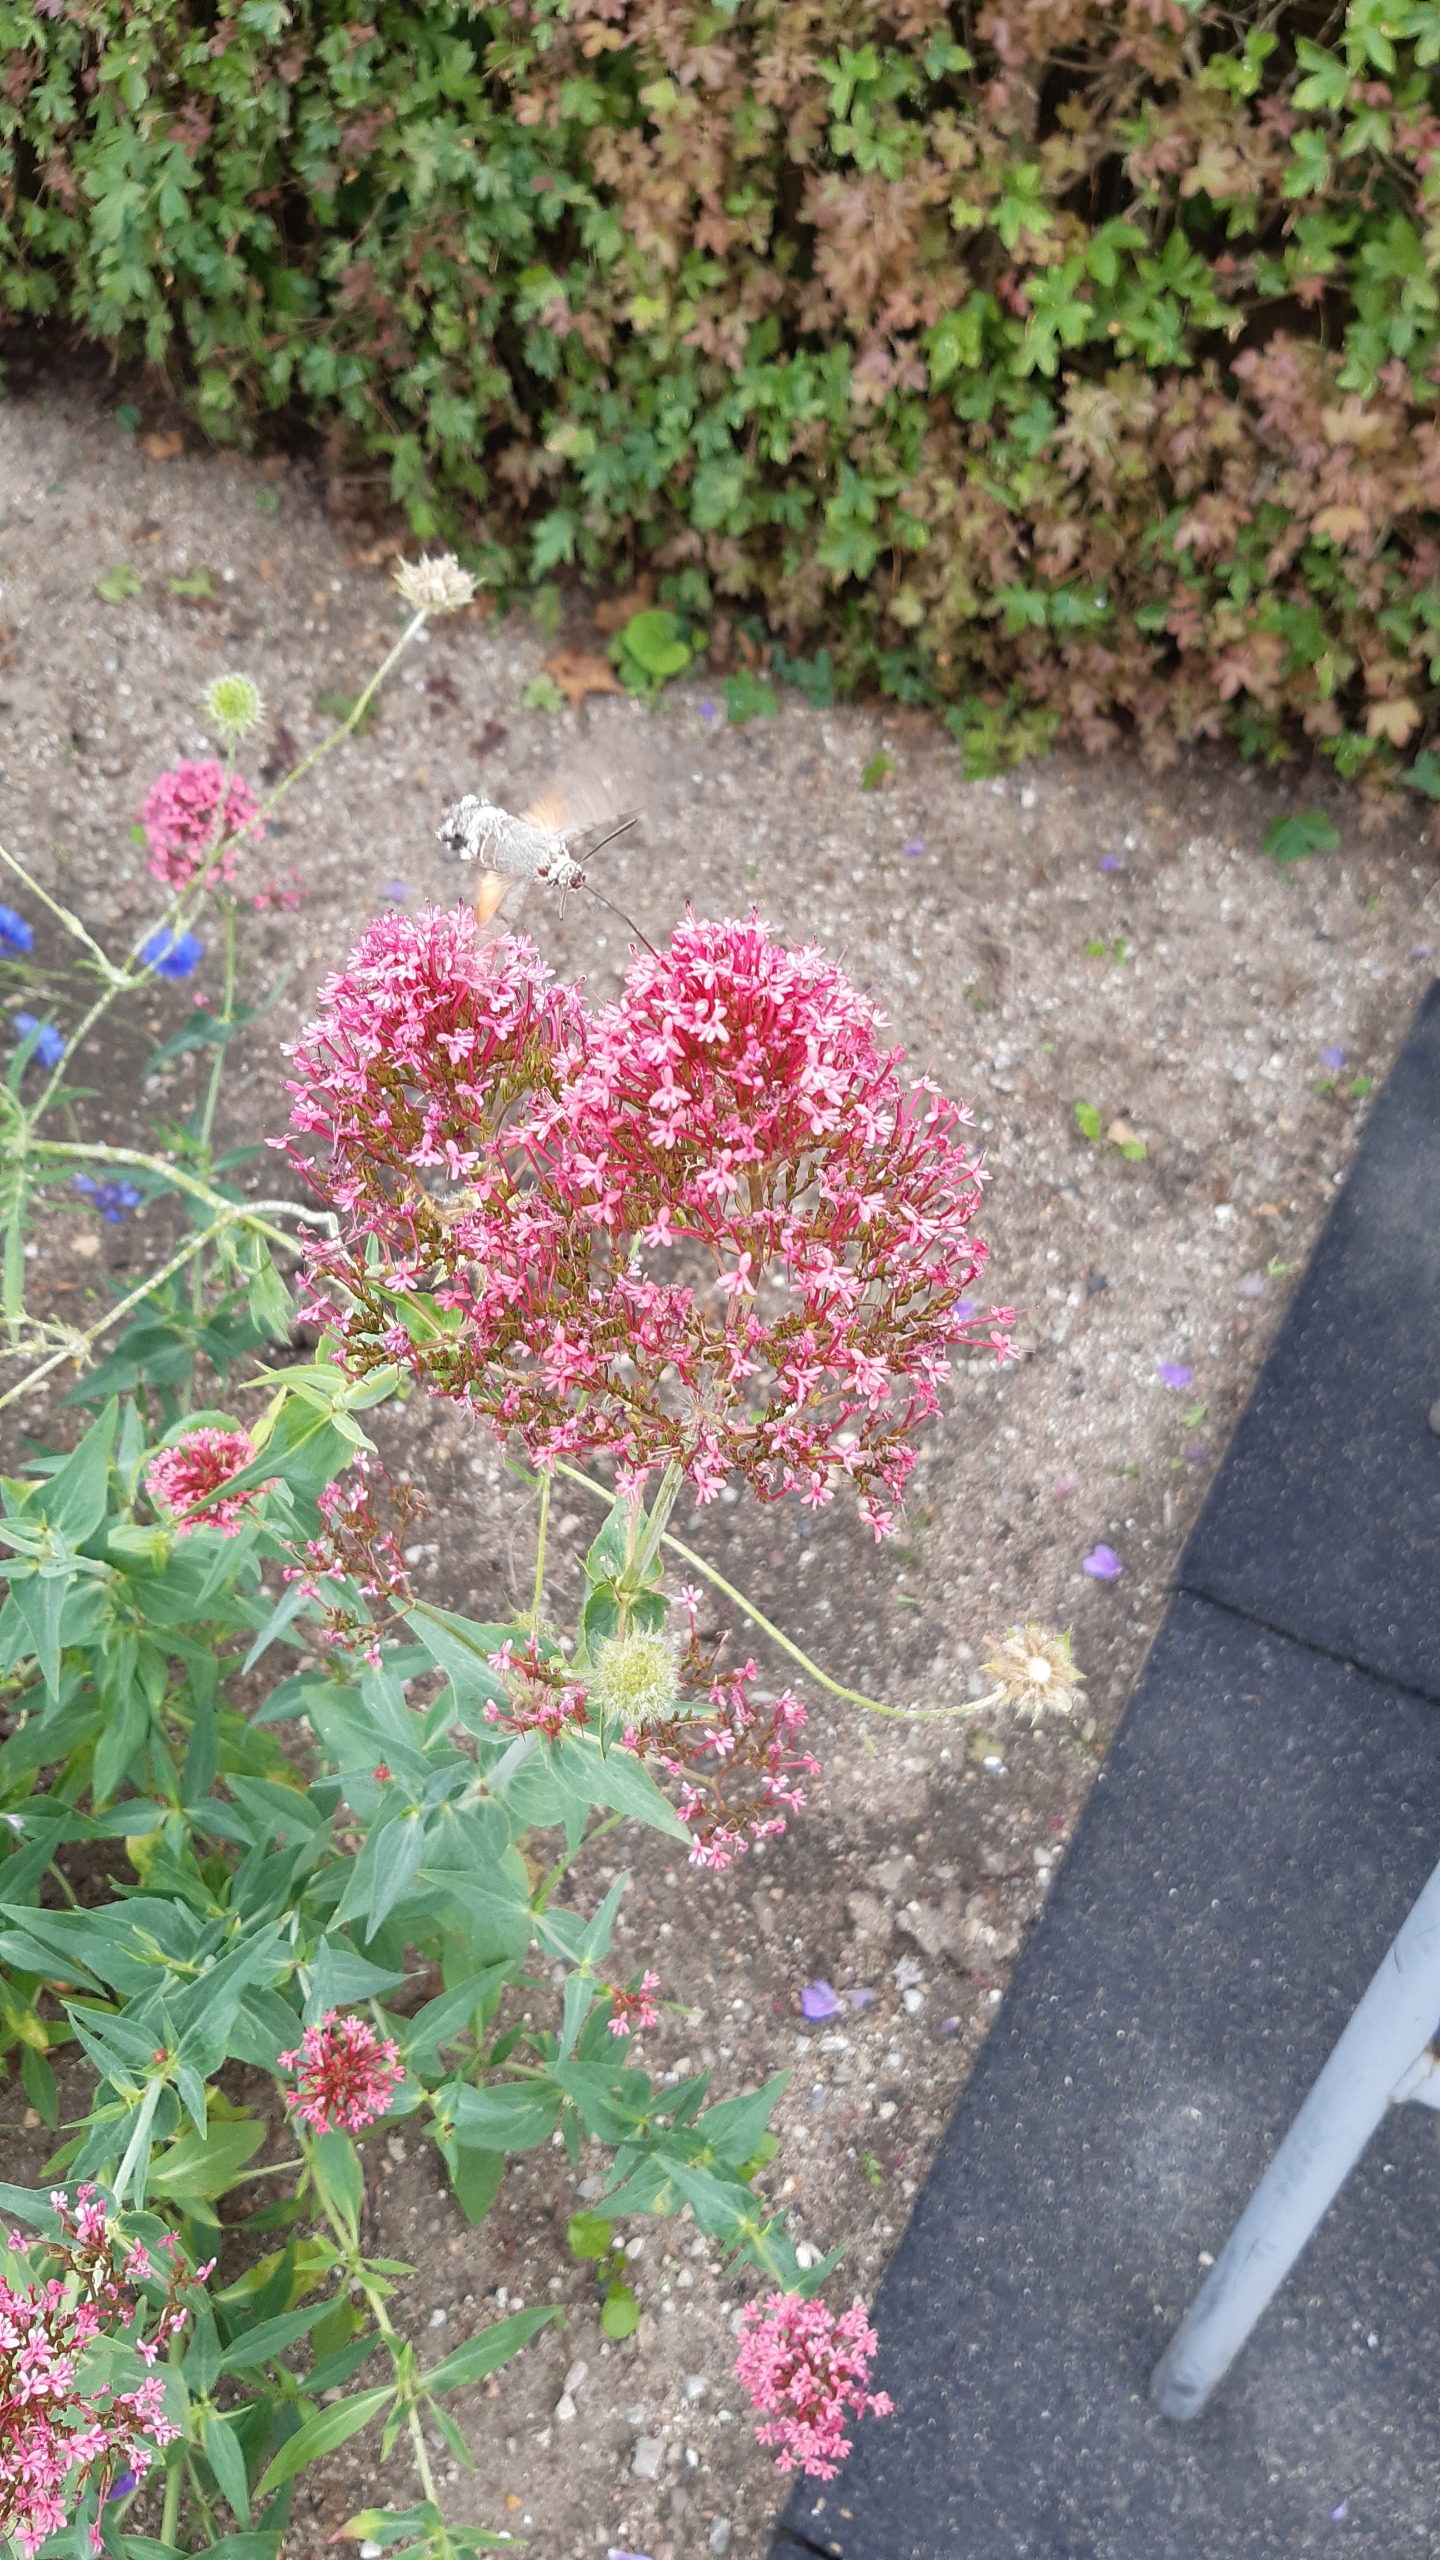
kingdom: Animalia
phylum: Arthropoda
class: Insecta
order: Lepidoptera
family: Sphingidae
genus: Macroglossum
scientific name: Macroglossum stellatarum
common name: Duehale
